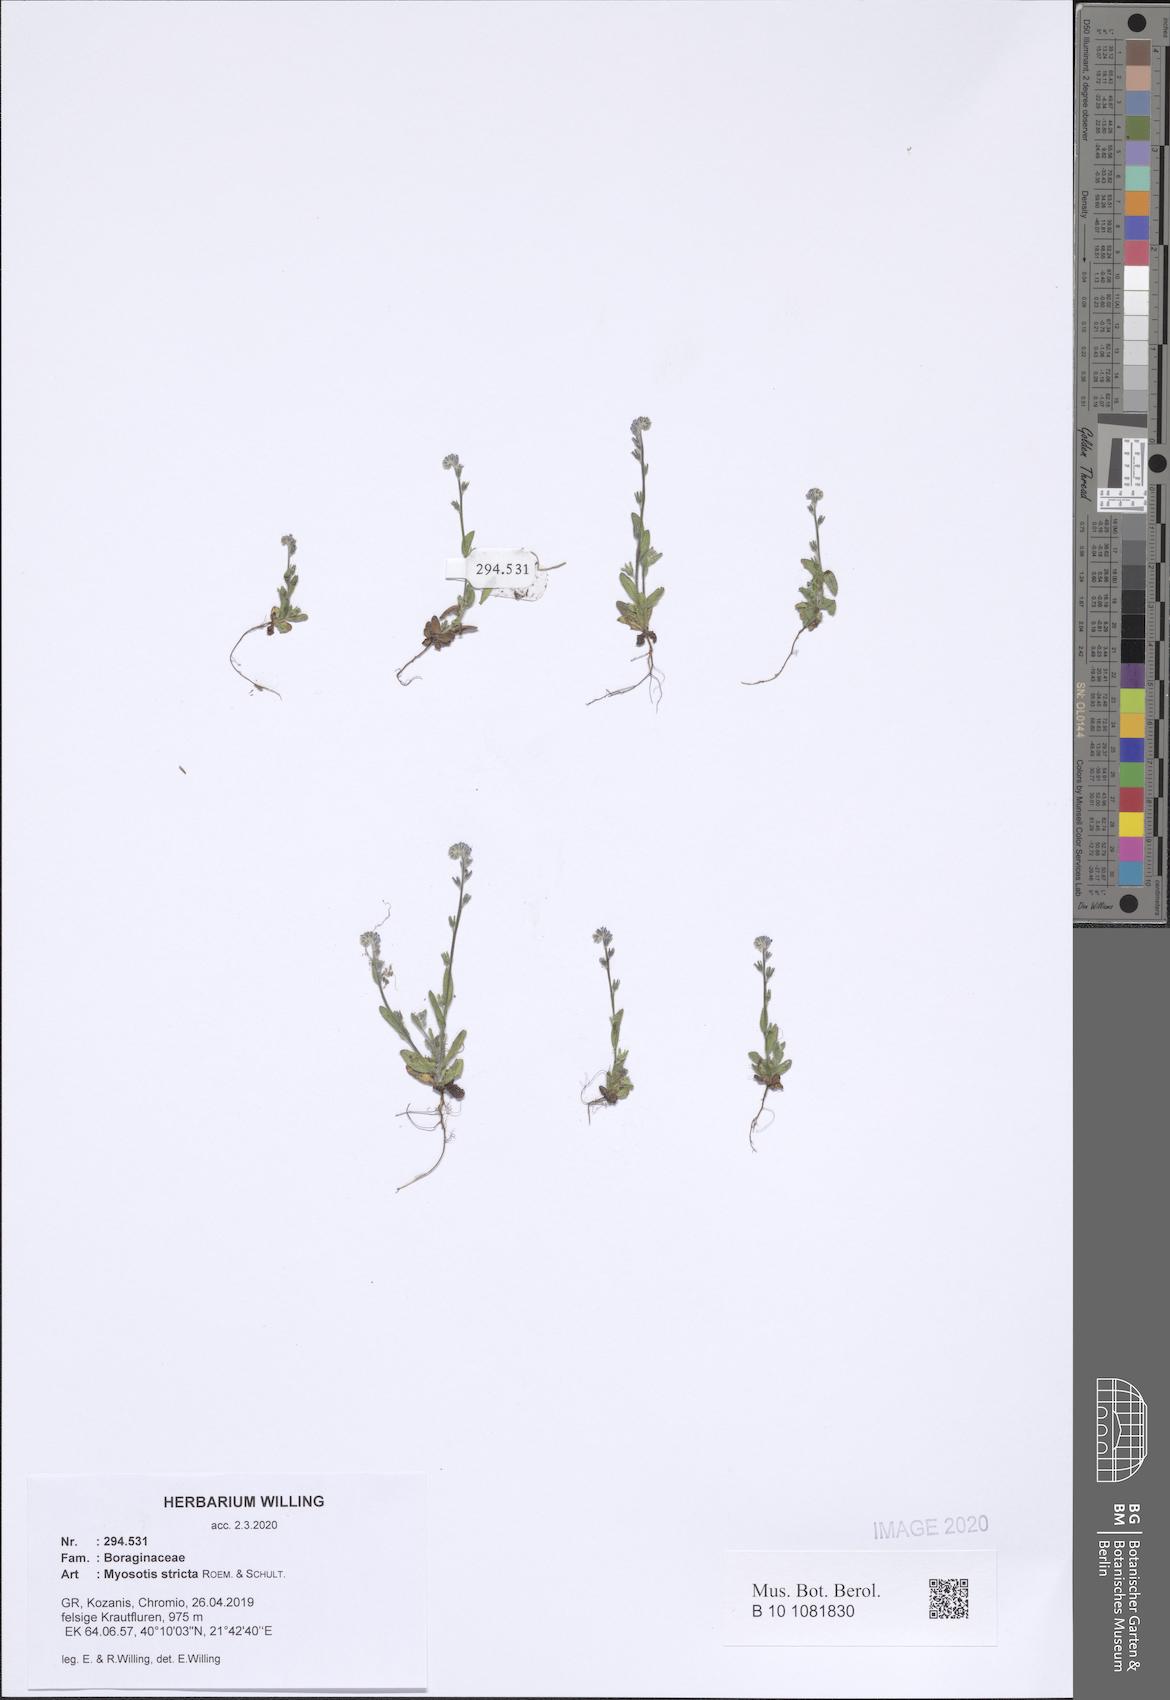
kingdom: Plantae
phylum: Tracheophyta
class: Magnoliopsida
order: Boraginales
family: Boraginaceae
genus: Myosotis
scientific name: Myosotis stricta
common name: Strict forget-me-not
